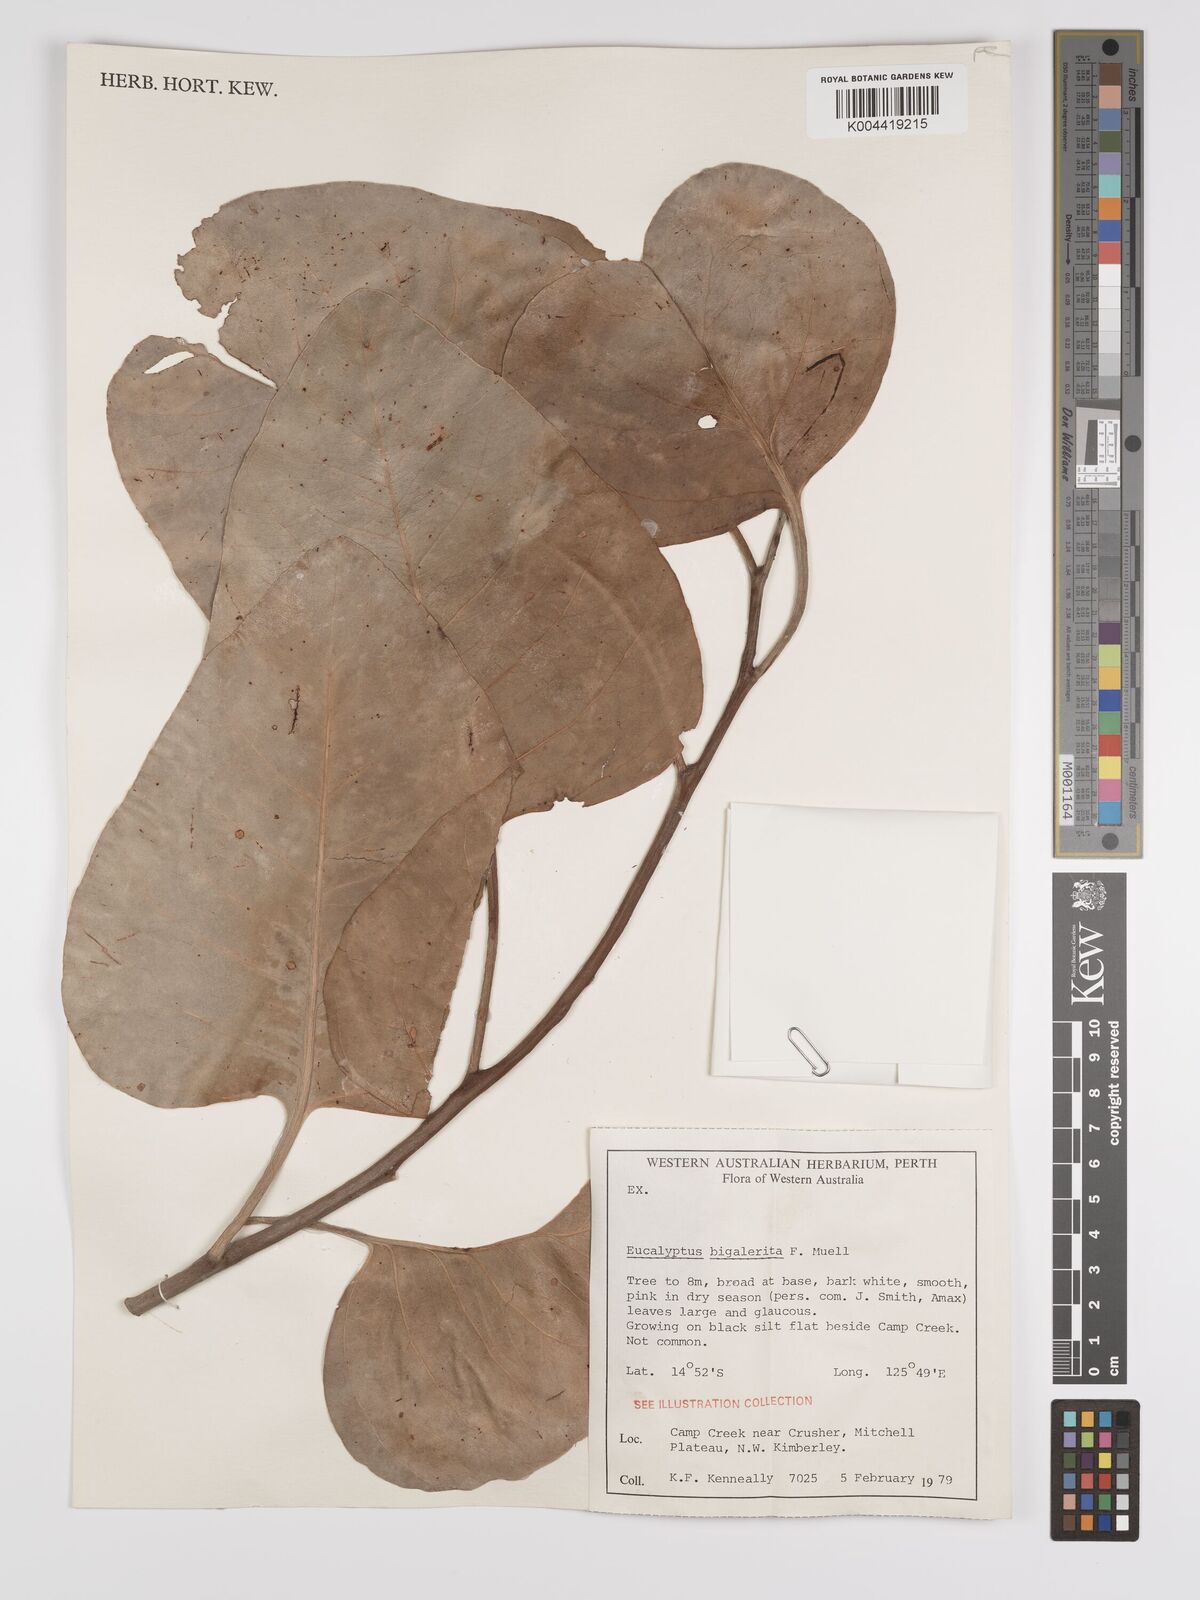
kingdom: Plantae
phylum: Tracheophyta
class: Magnoliopsida
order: Myrtales
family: Myrtaceae
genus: Eucalyptus
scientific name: Eucalyptus bigalerita
